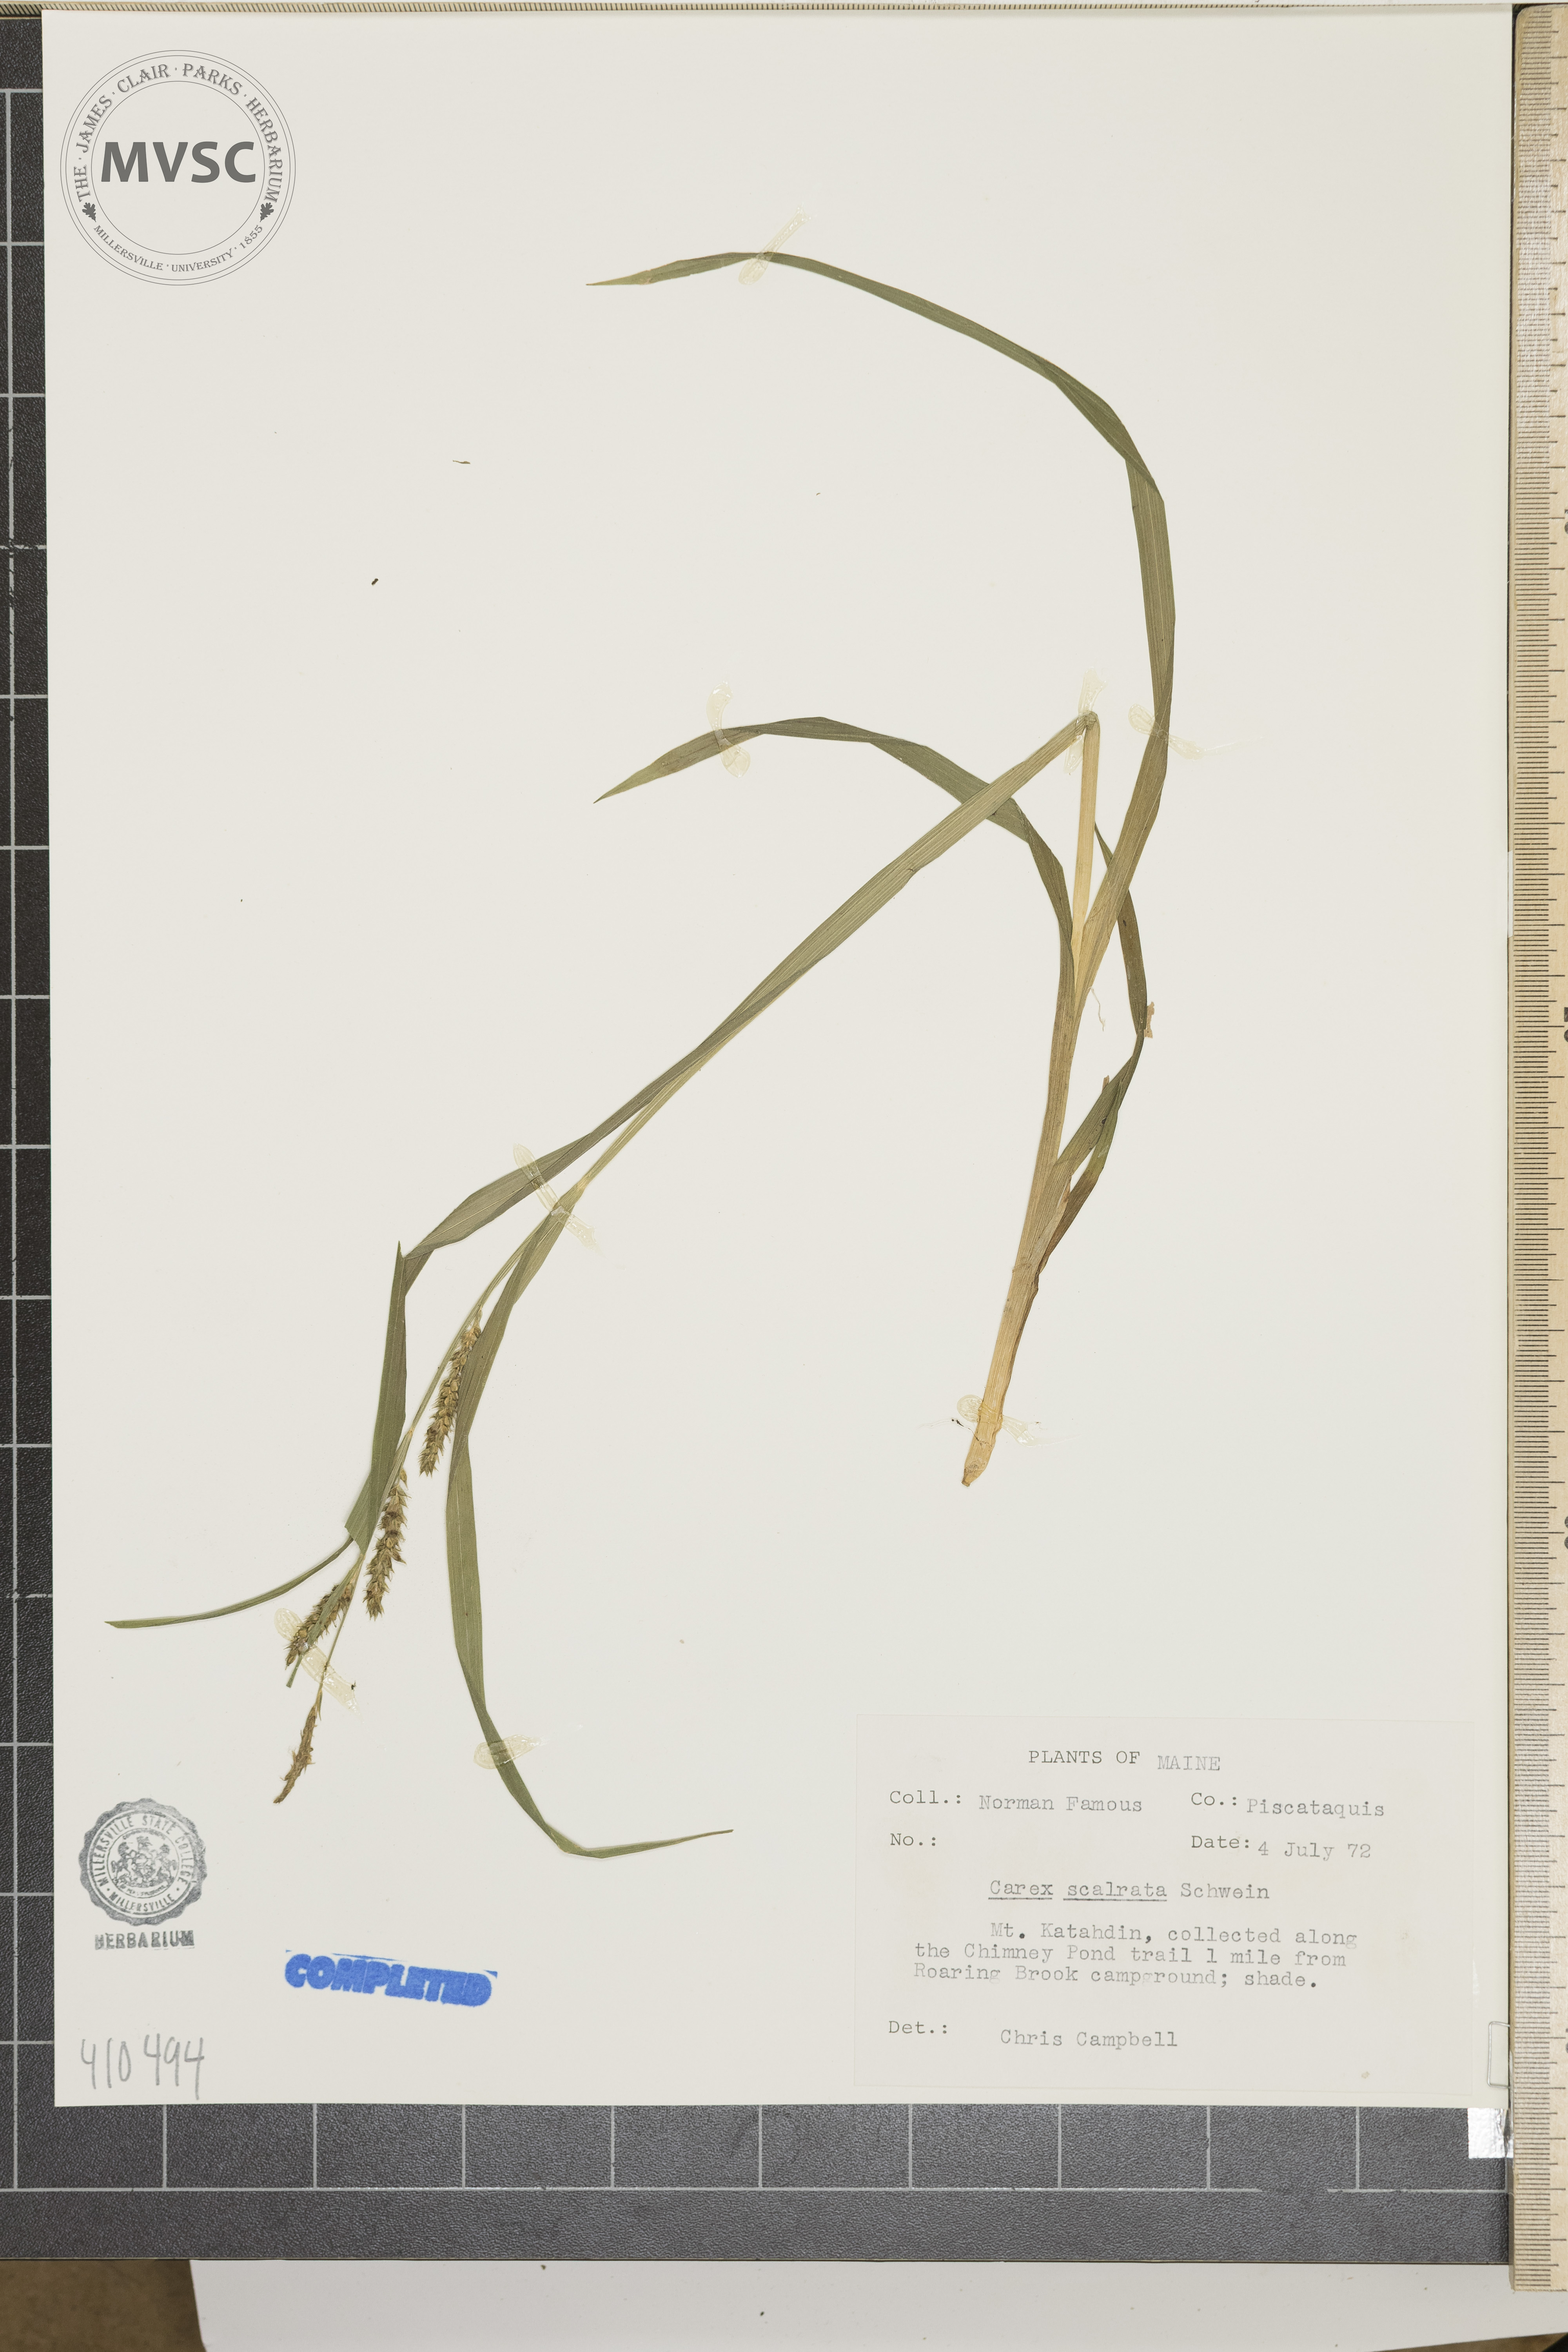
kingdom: Plantae
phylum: Tracheophyta
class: Liliopsida
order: Poales
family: Cyperaceae
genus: Carex
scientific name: Carex scabrata
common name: Eastern rough sedge
